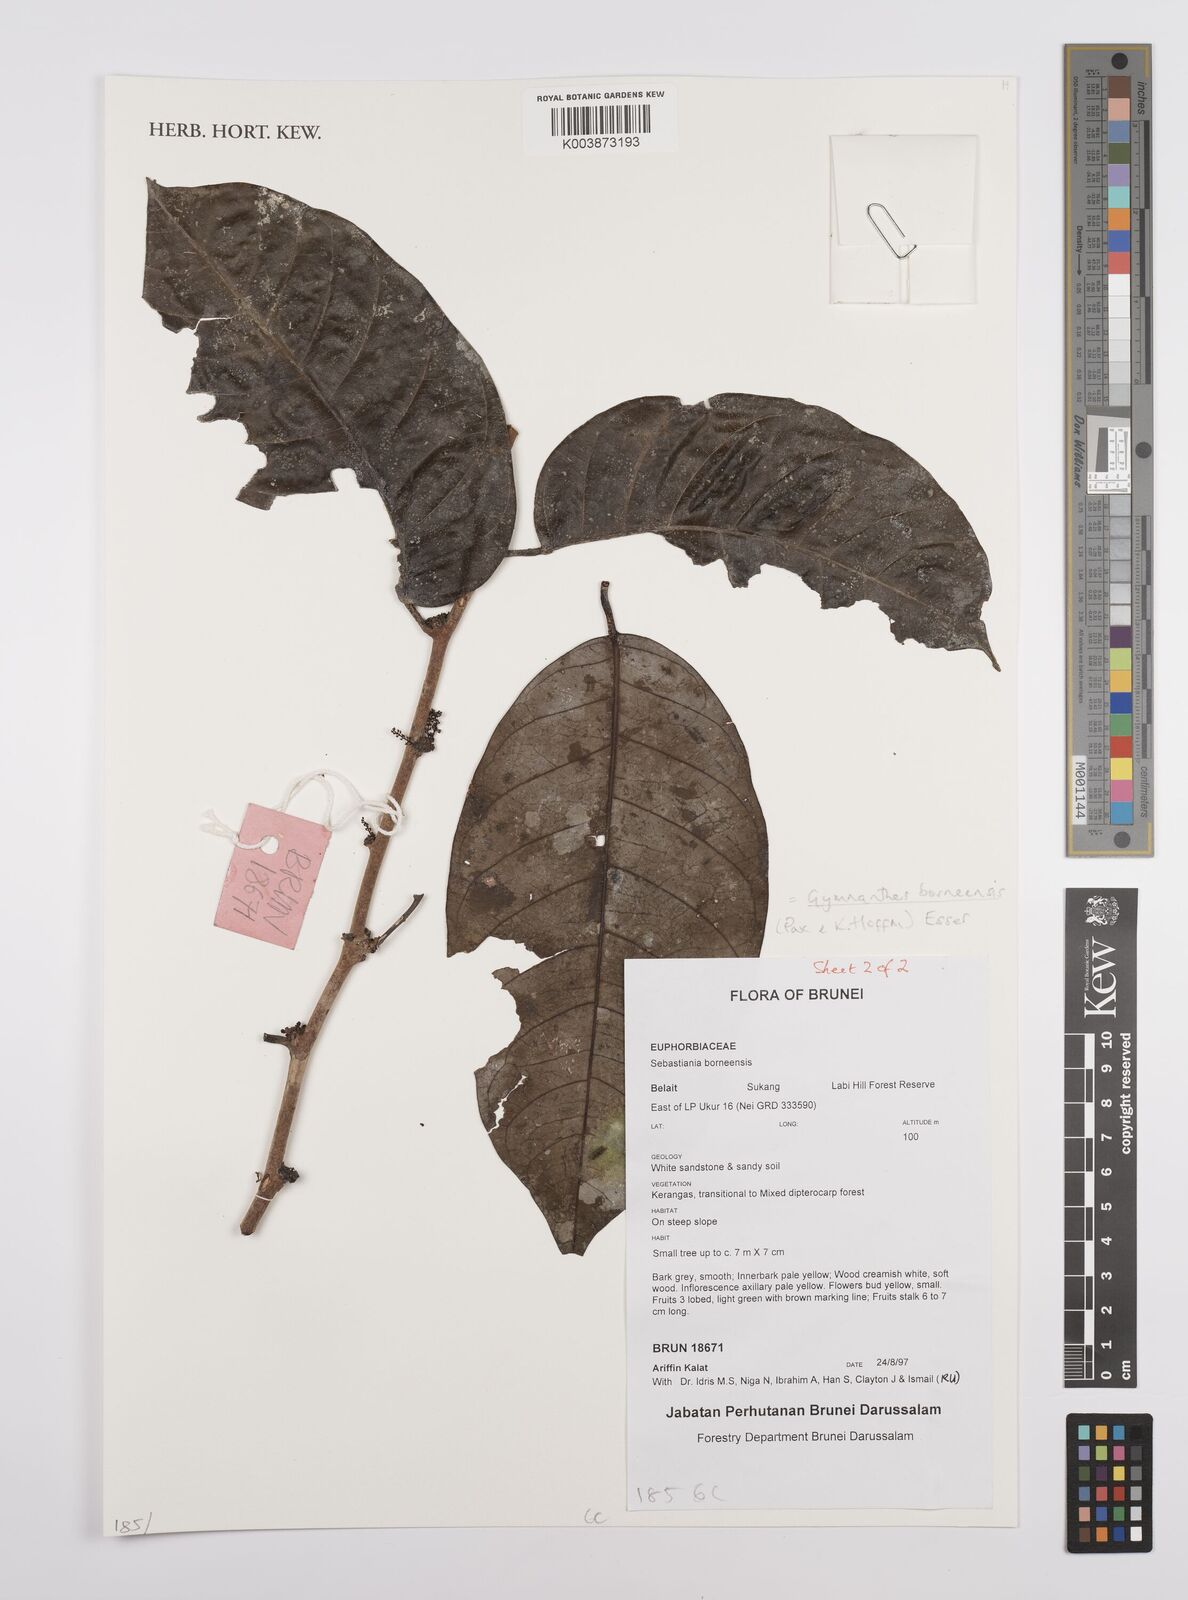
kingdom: Plantae
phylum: Tracheophyta
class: Magnoliopsida
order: Malpighiales
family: Euphorbiaceae
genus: Gymnanthes
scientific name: Gymnanthes borneensis
